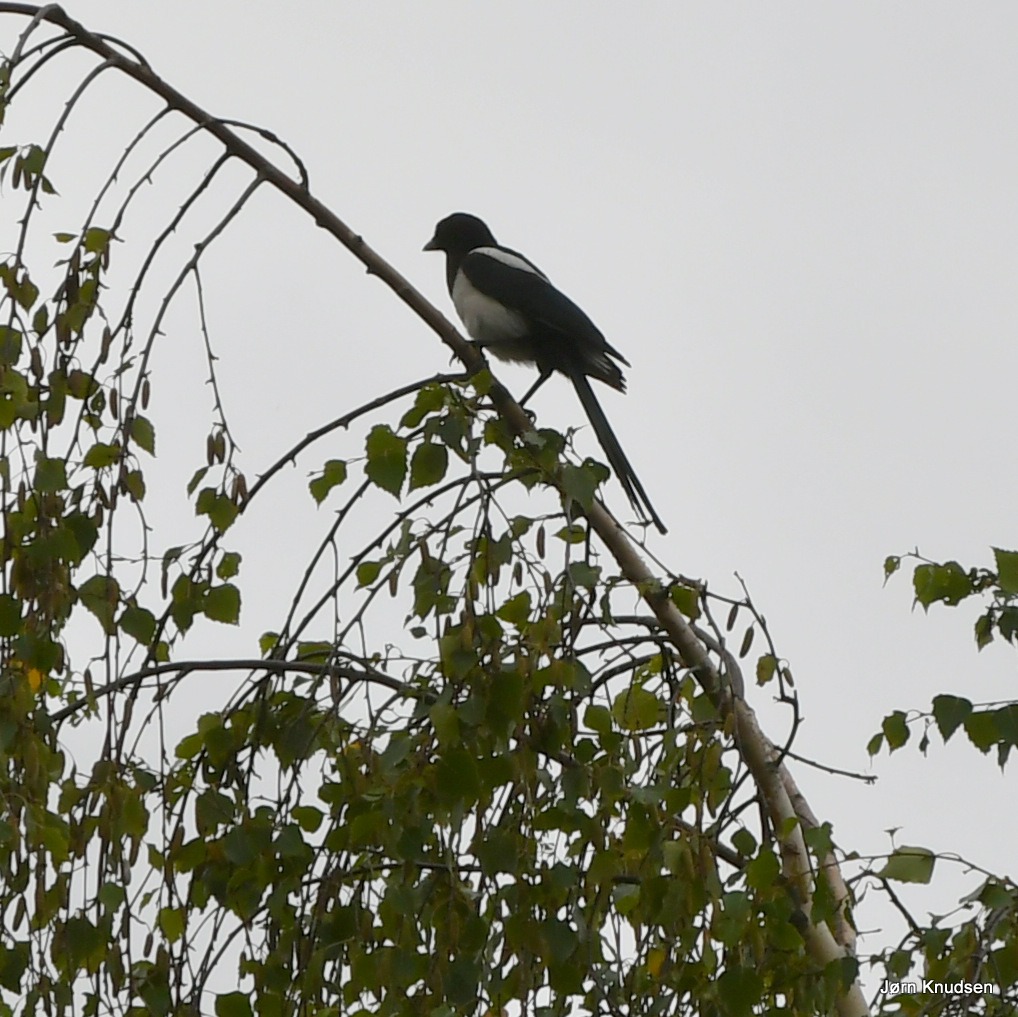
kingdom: Animalia
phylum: Chordata
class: Aves
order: Passeriformes
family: Corvidae
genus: Pica
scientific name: Pica pica
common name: Husskade
